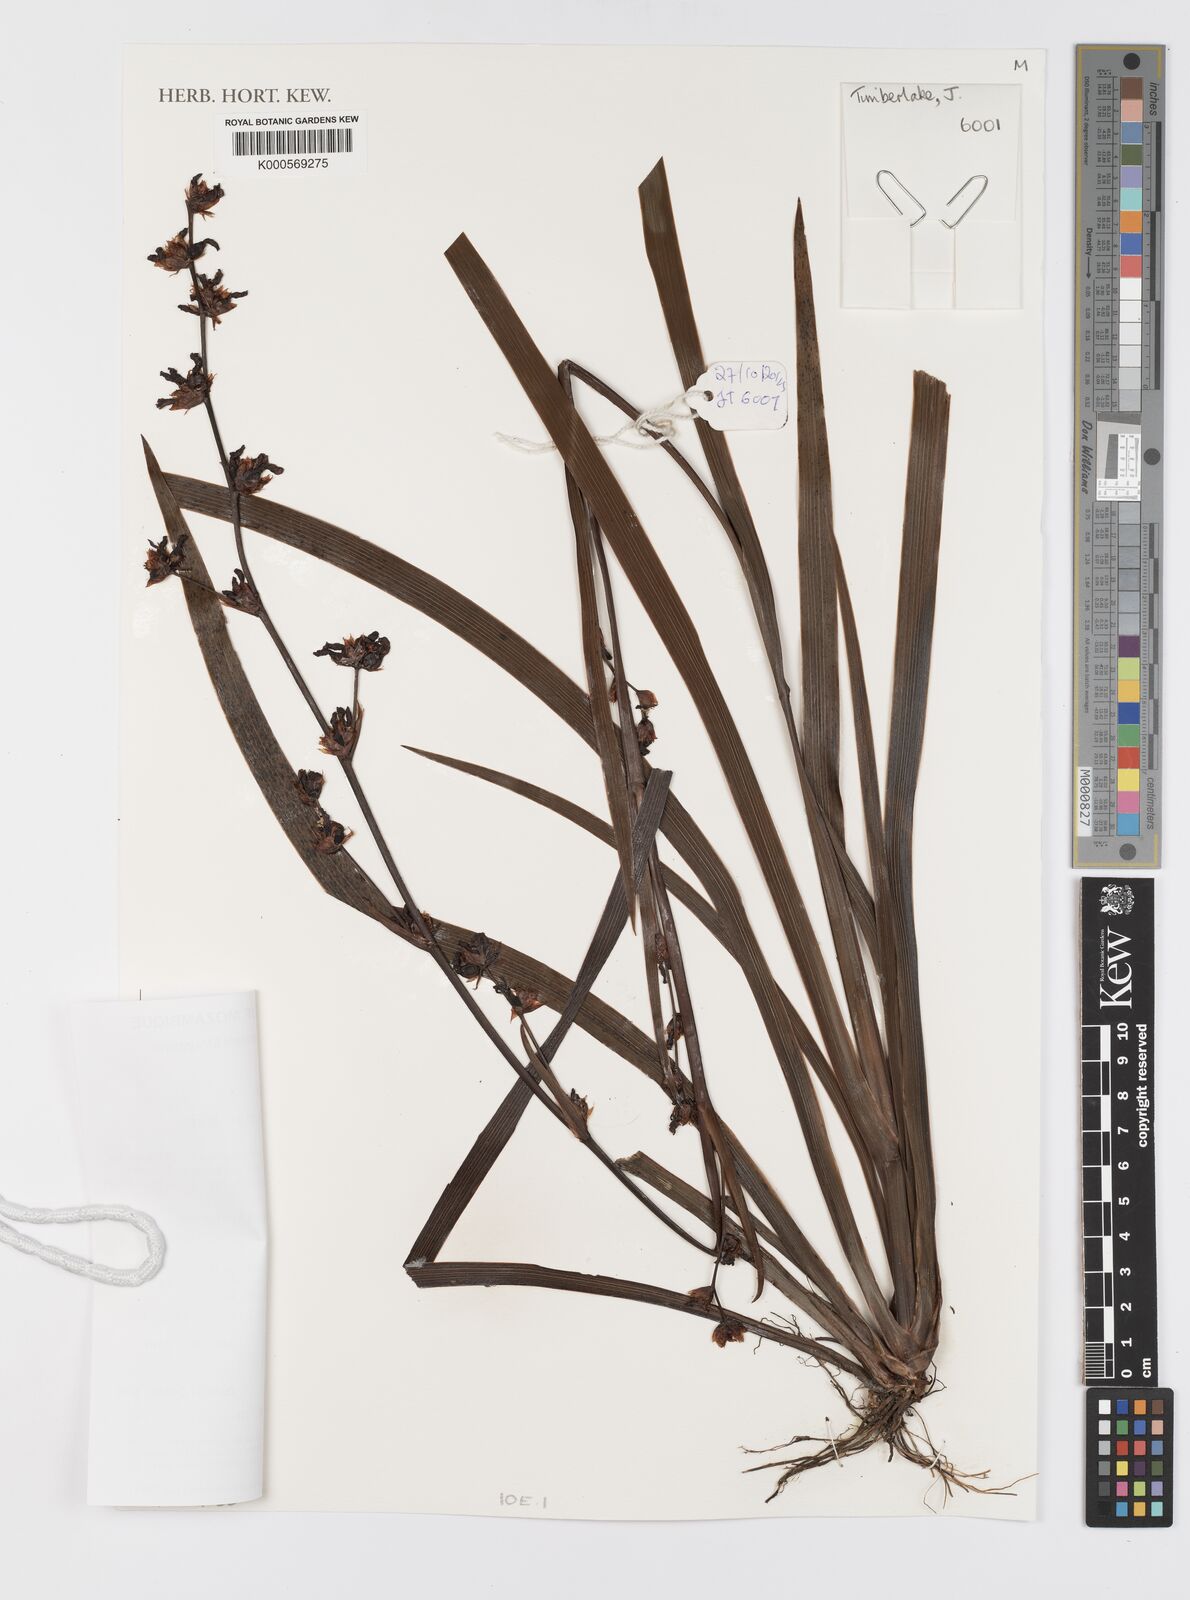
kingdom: Plantae
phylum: Tracheophyta
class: Liliopsida
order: Asparagales
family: Iridaceae
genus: Aristea
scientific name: Aristea ecklonii
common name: Blue corn-lily
